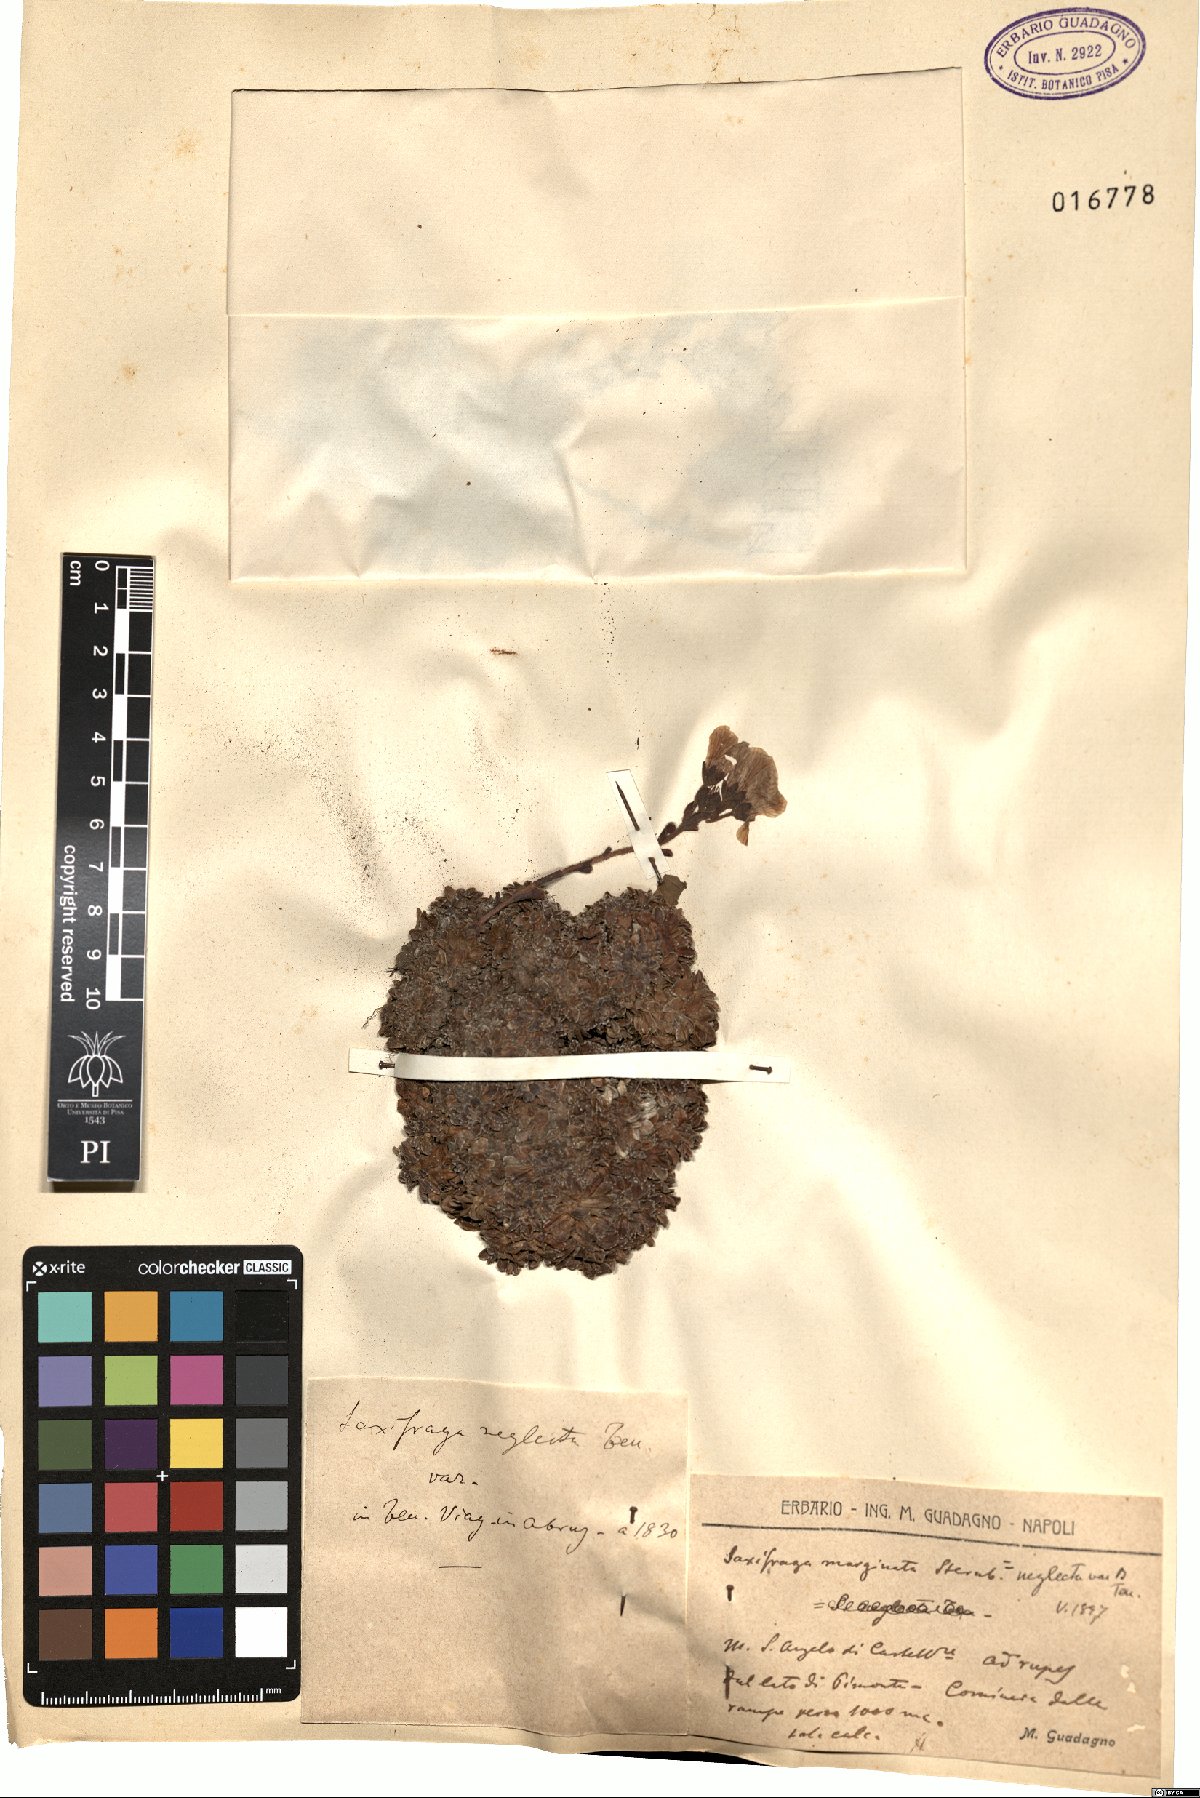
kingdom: Plantae
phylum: Tracheophyta
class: Magnoliopsida
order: Saxifragales
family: Saxifragaceae
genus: Saxifraga
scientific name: Saxifraga marginata
